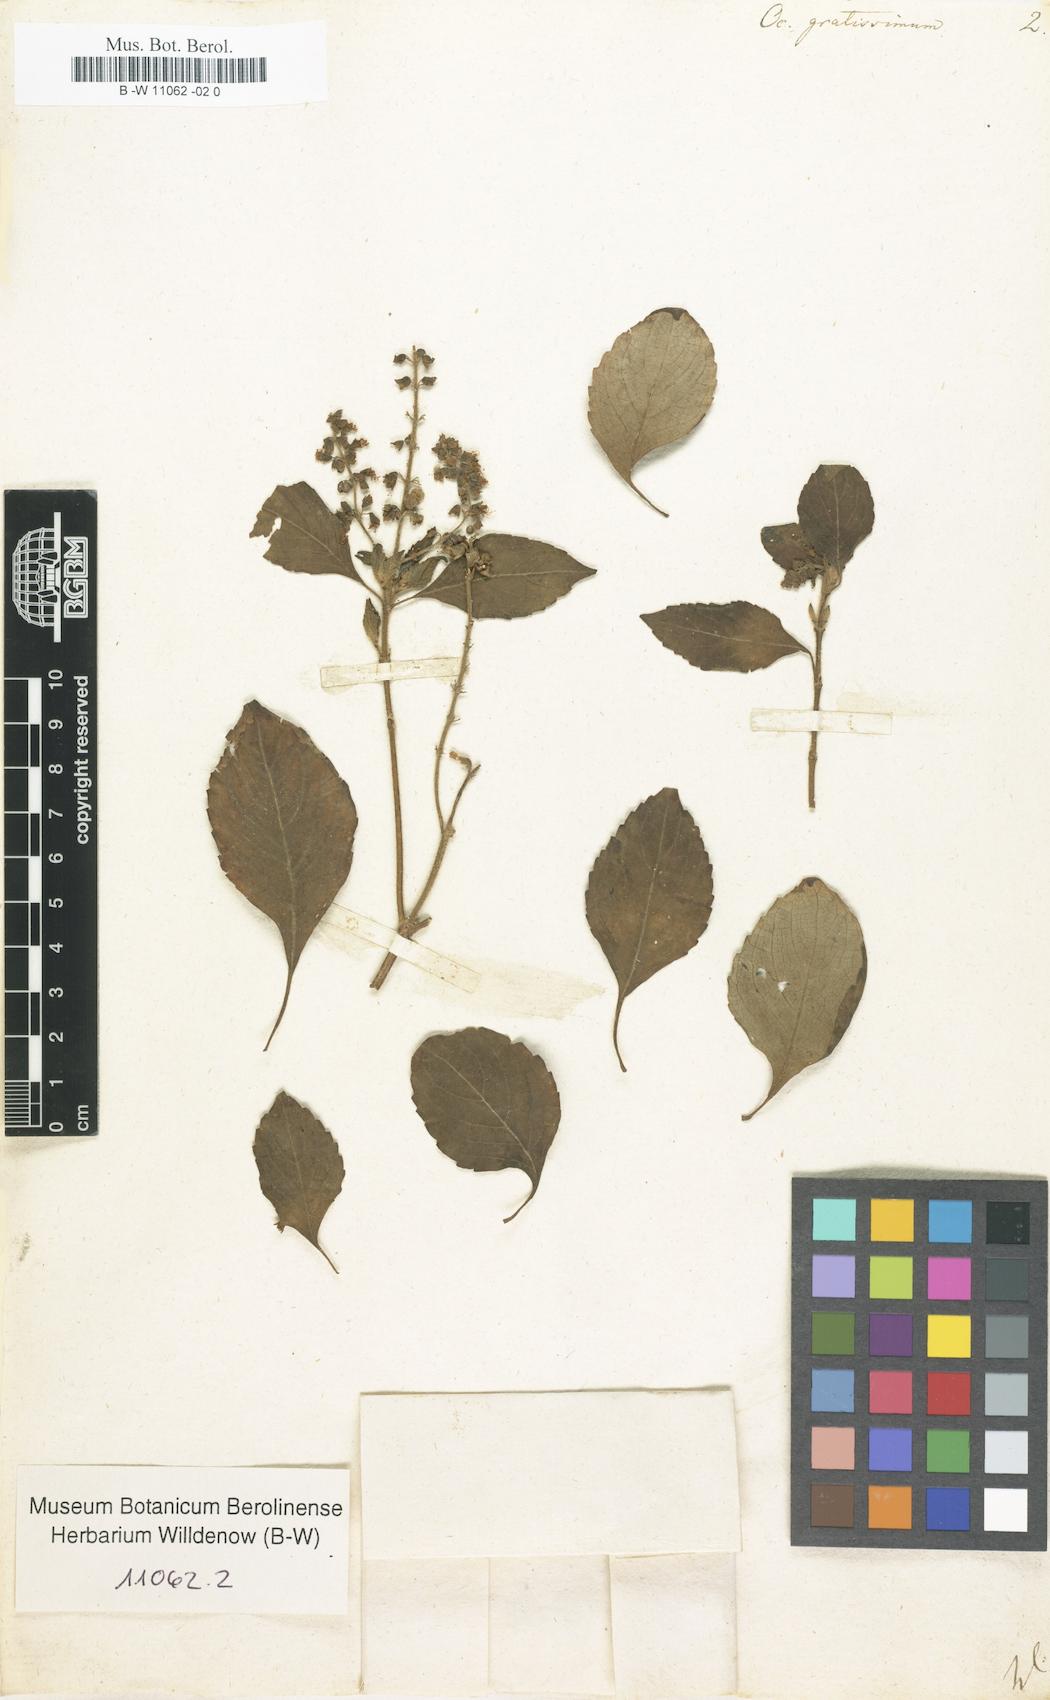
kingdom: Plantae
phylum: Tracheophyta
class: Magnoliopsida
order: Lamiales
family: Lamiaceae
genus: Ocimum
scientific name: Ocimum gratissimum
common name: African basil
